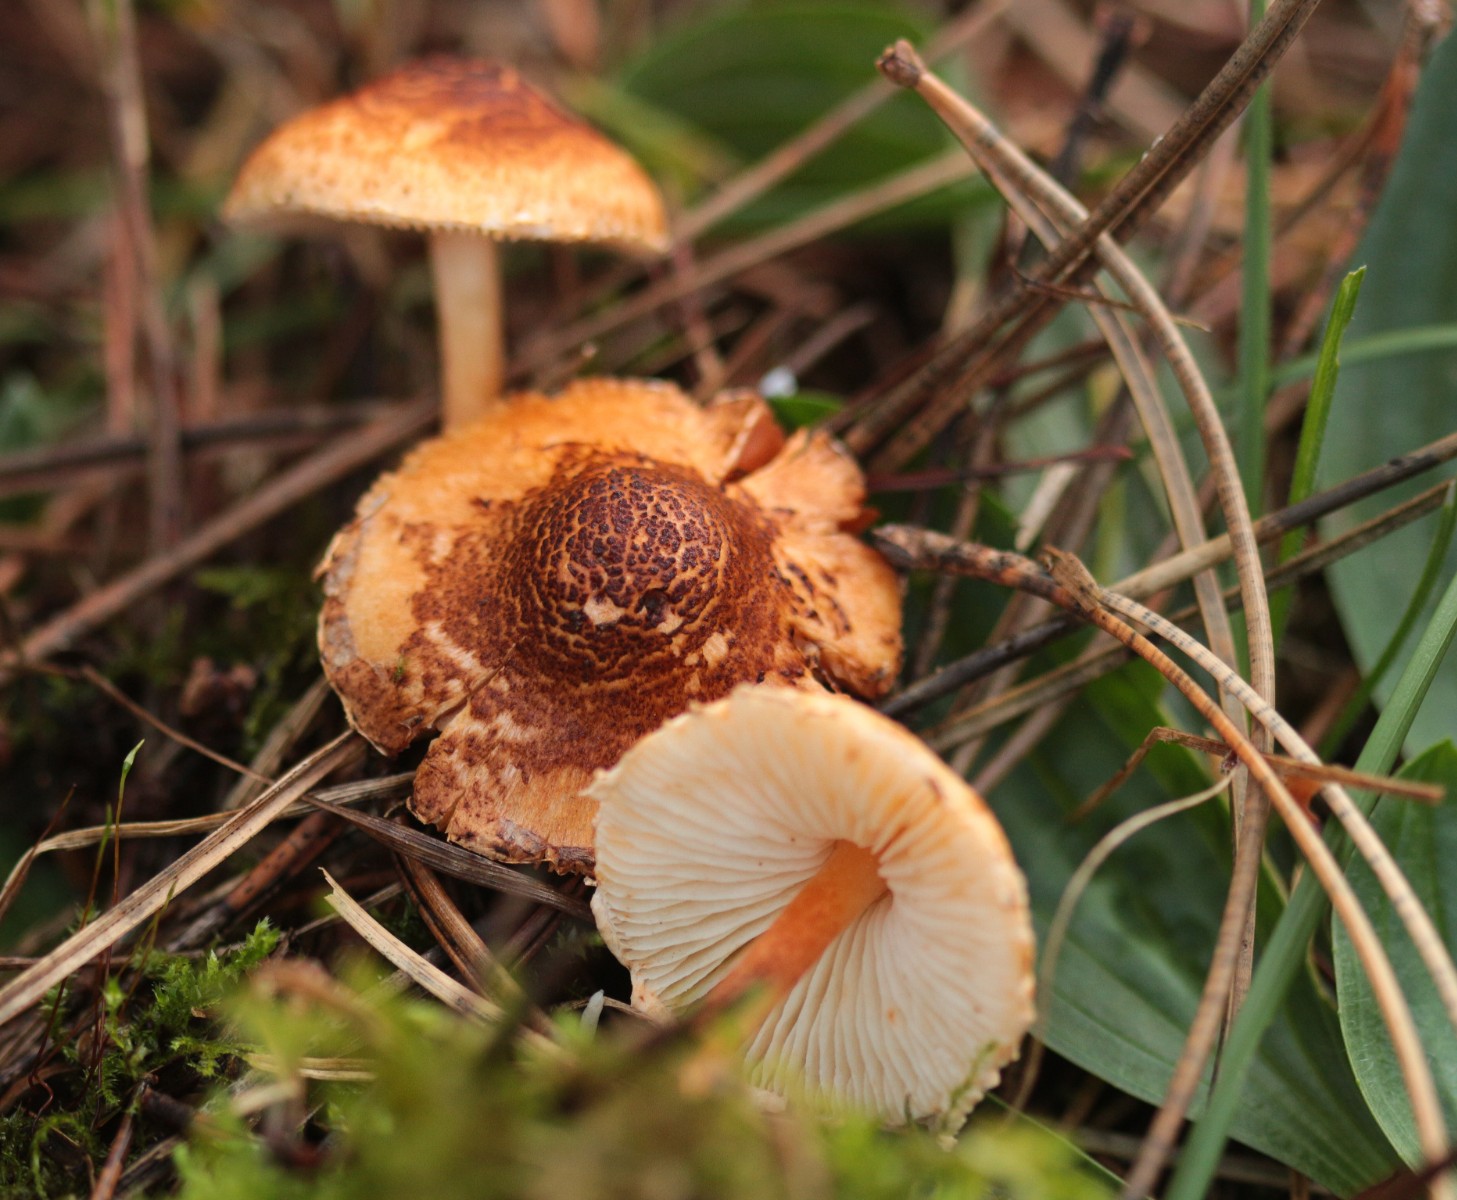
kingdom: Fungi
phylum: Basidiomycota
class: Agaricomycetes
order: Agaricales
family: Agaricaceae
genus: Lepiota
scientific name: Lepiota castanea
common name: kastaniebrun parasolhat
